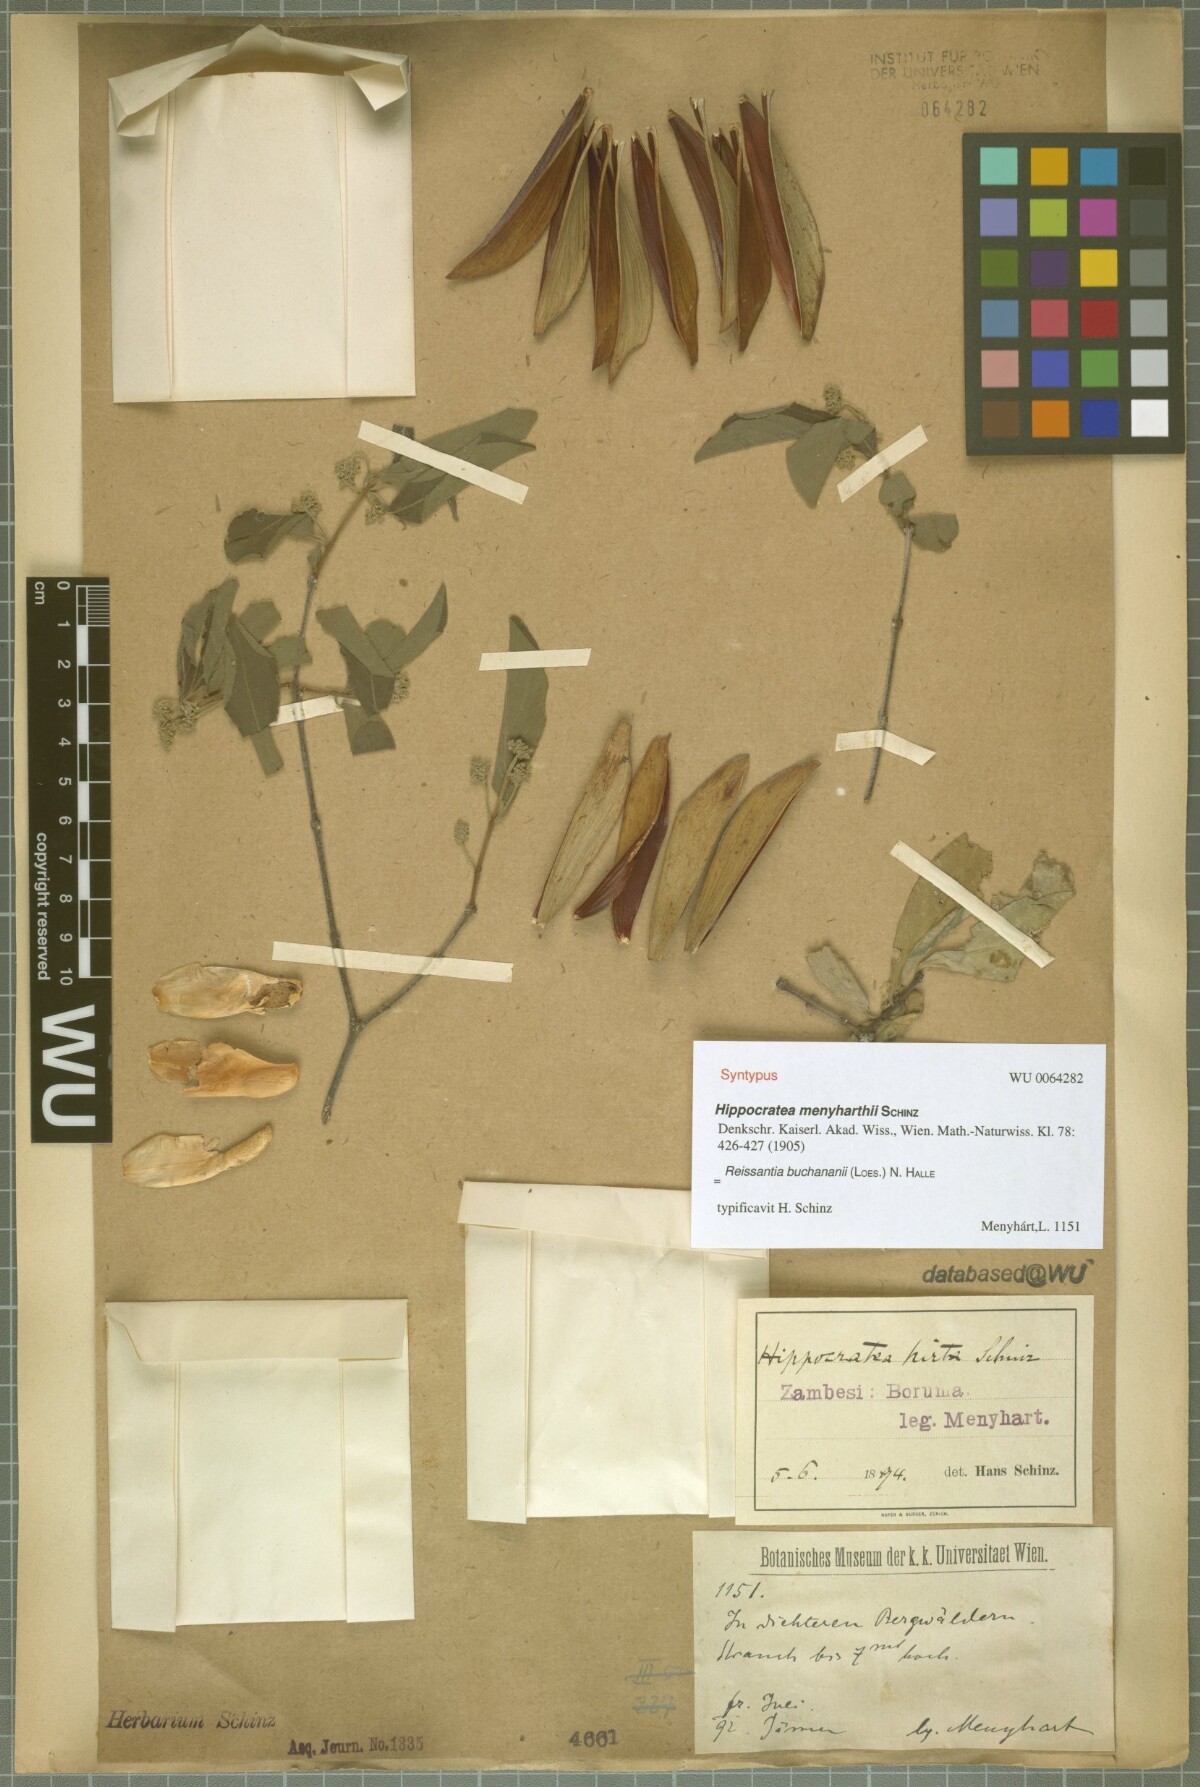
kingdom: Plantae
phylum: Tracheophyta
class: Magnoliopsida
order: Celastrales
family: Celastraceae
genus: Reissantia
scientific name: Reissantia buchananii
